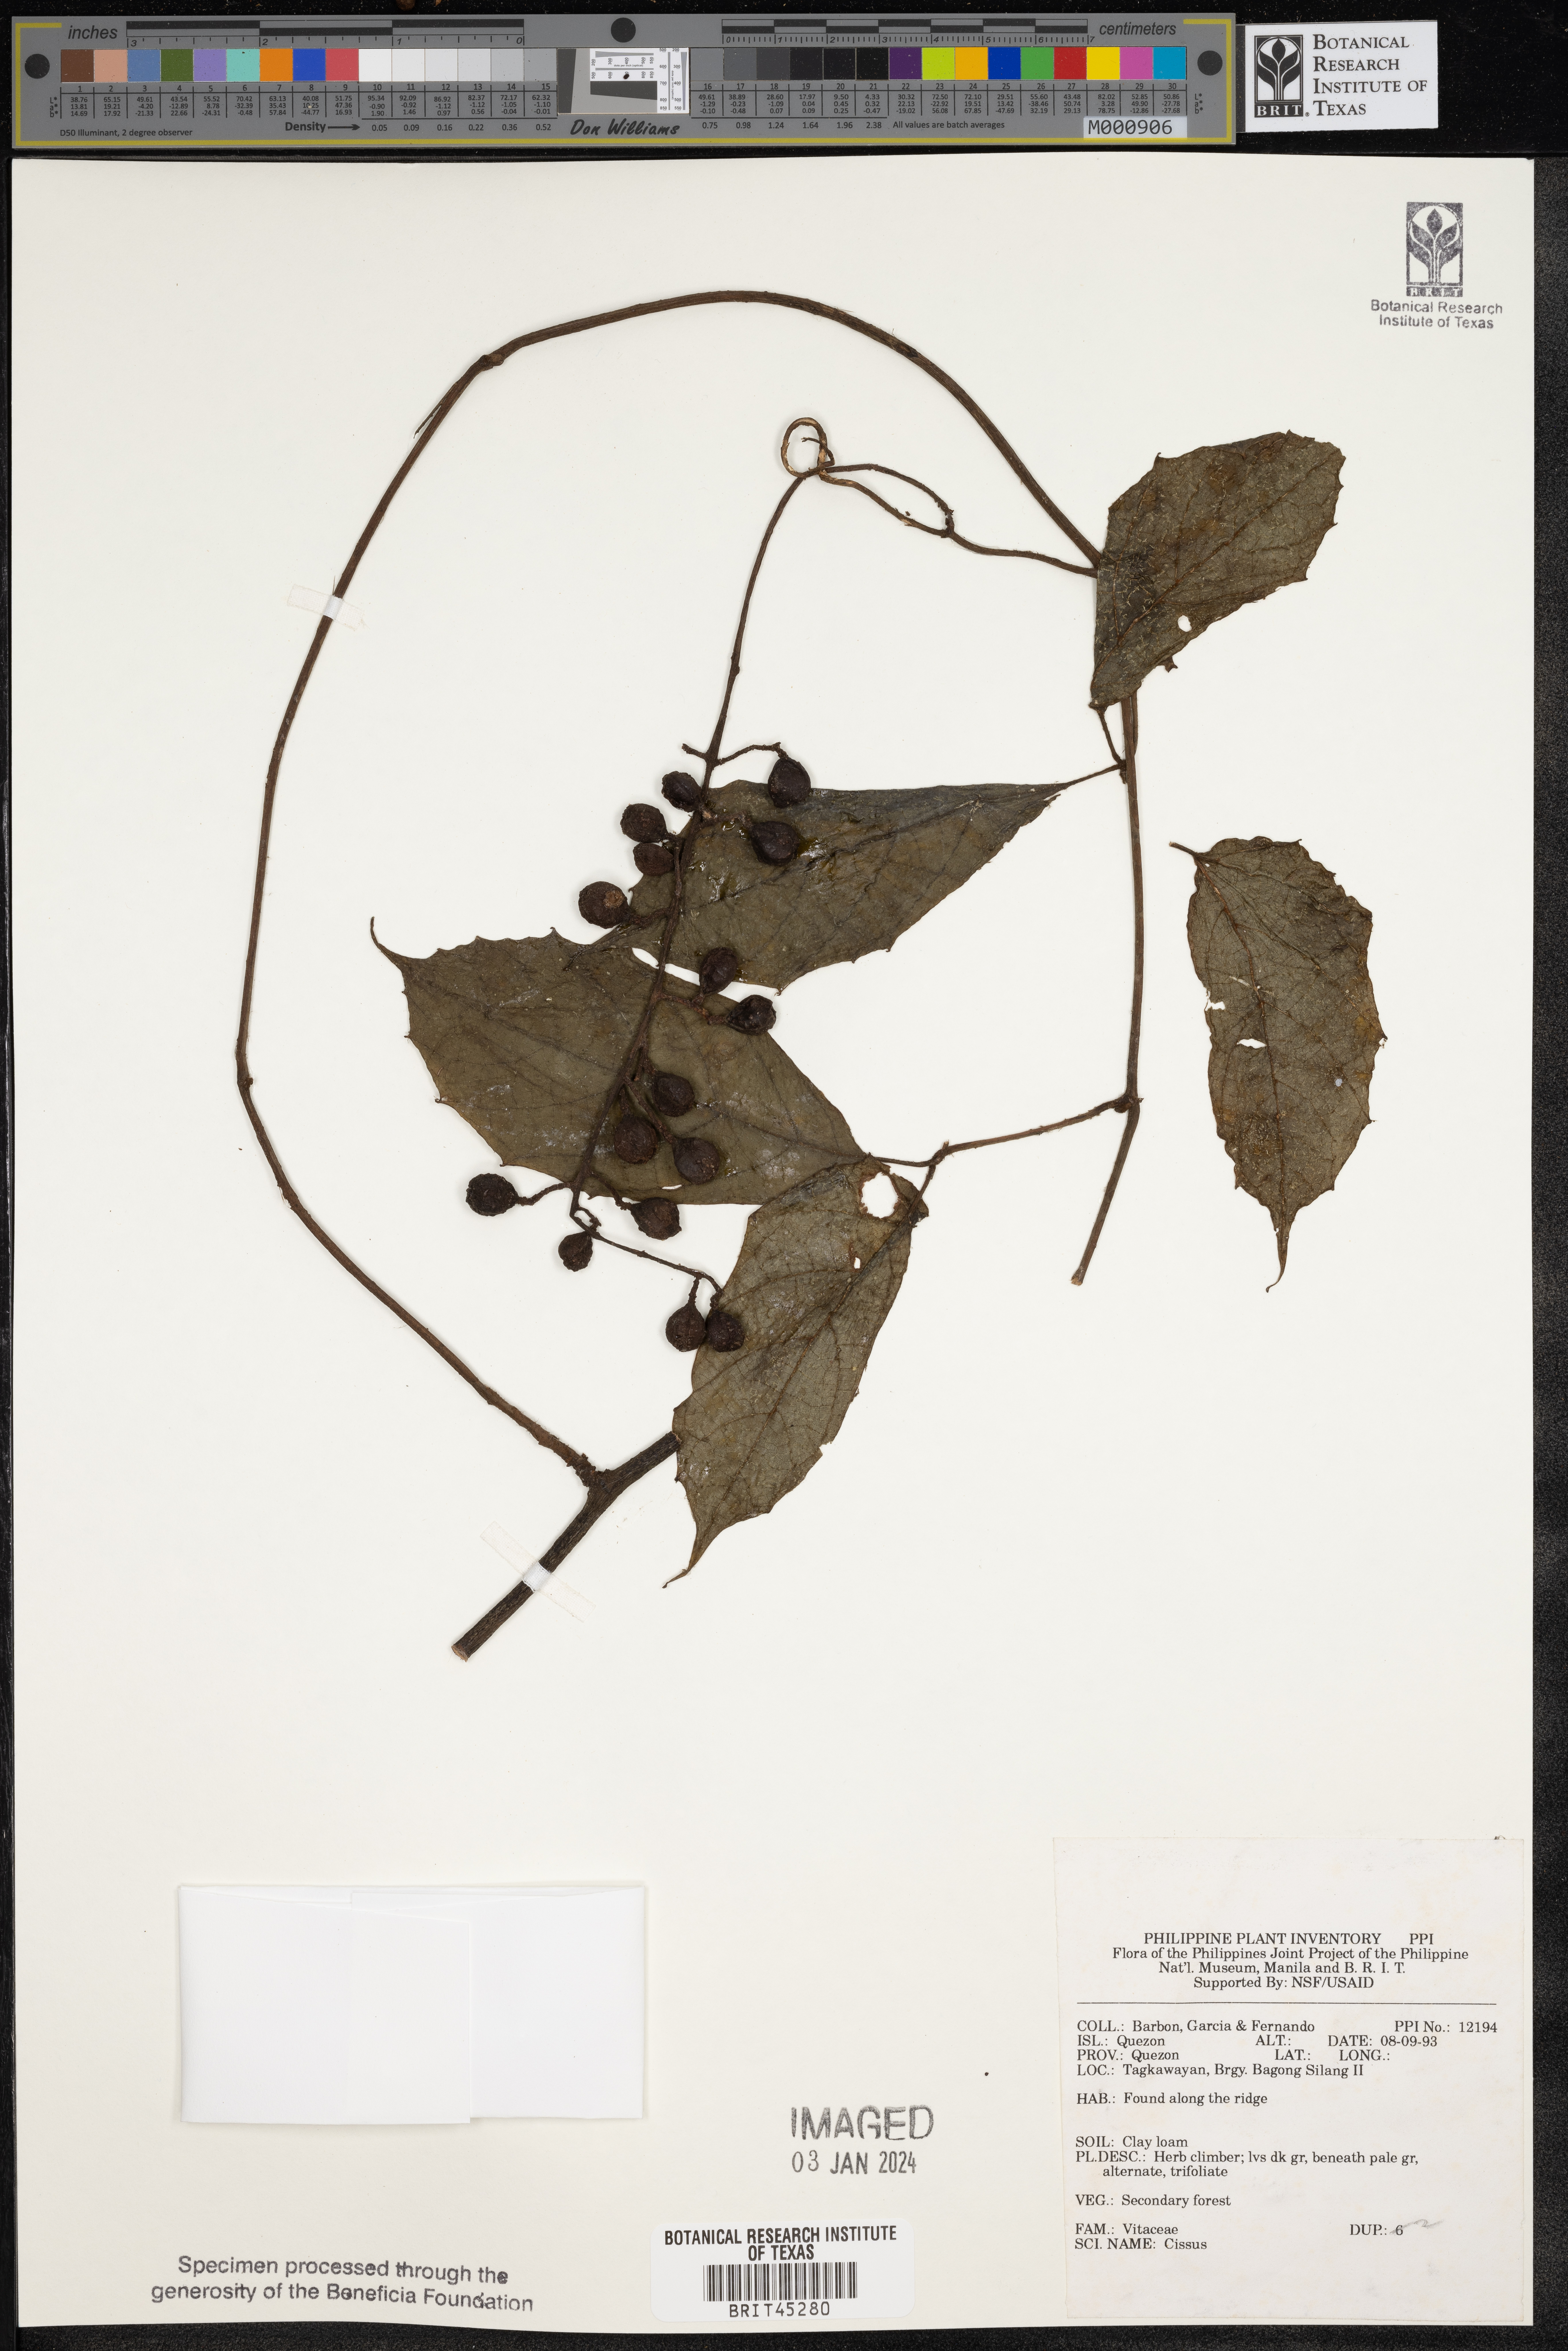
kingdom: Plantae
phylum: Tracheophyta
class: Magnoliopsida
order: Vitales
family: Vitaceae
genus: Cissus
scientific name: Cissus
